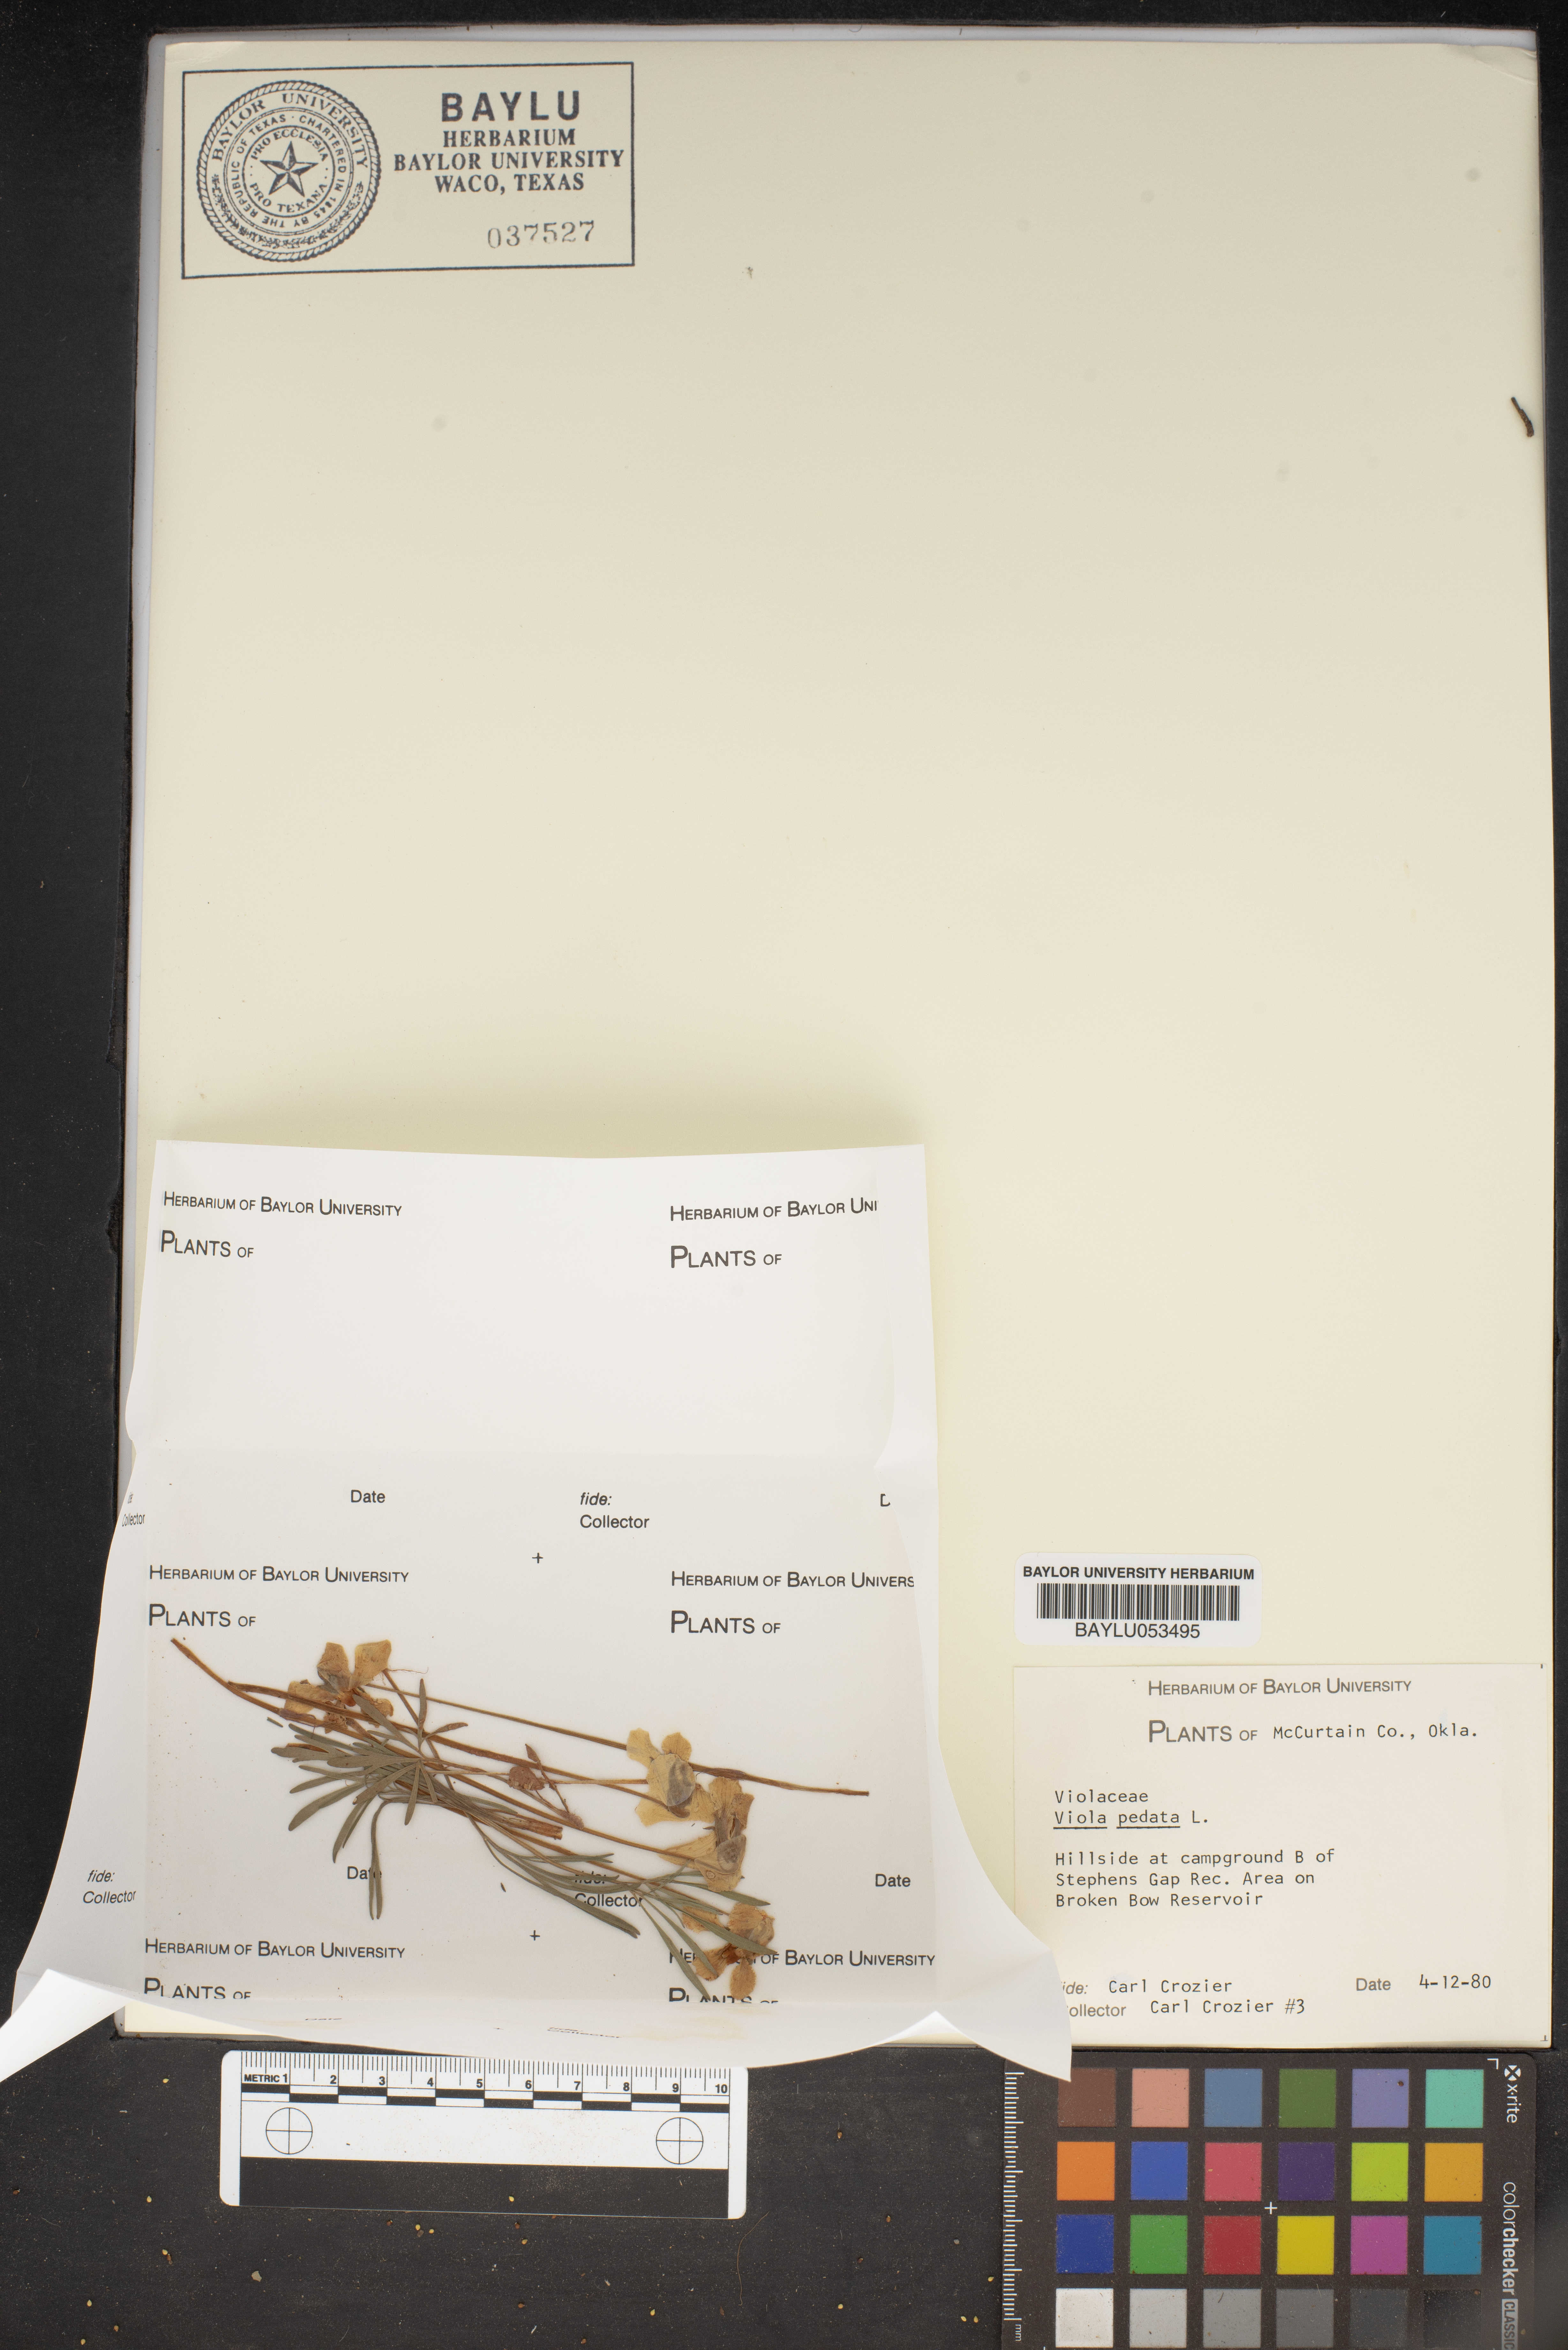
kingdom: Plantae
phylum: Tracheophyta
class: Magnoliopsida
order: Malpighiales
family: Violaceae
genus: Viola
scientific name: Viola pedata
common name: Pansy violet
